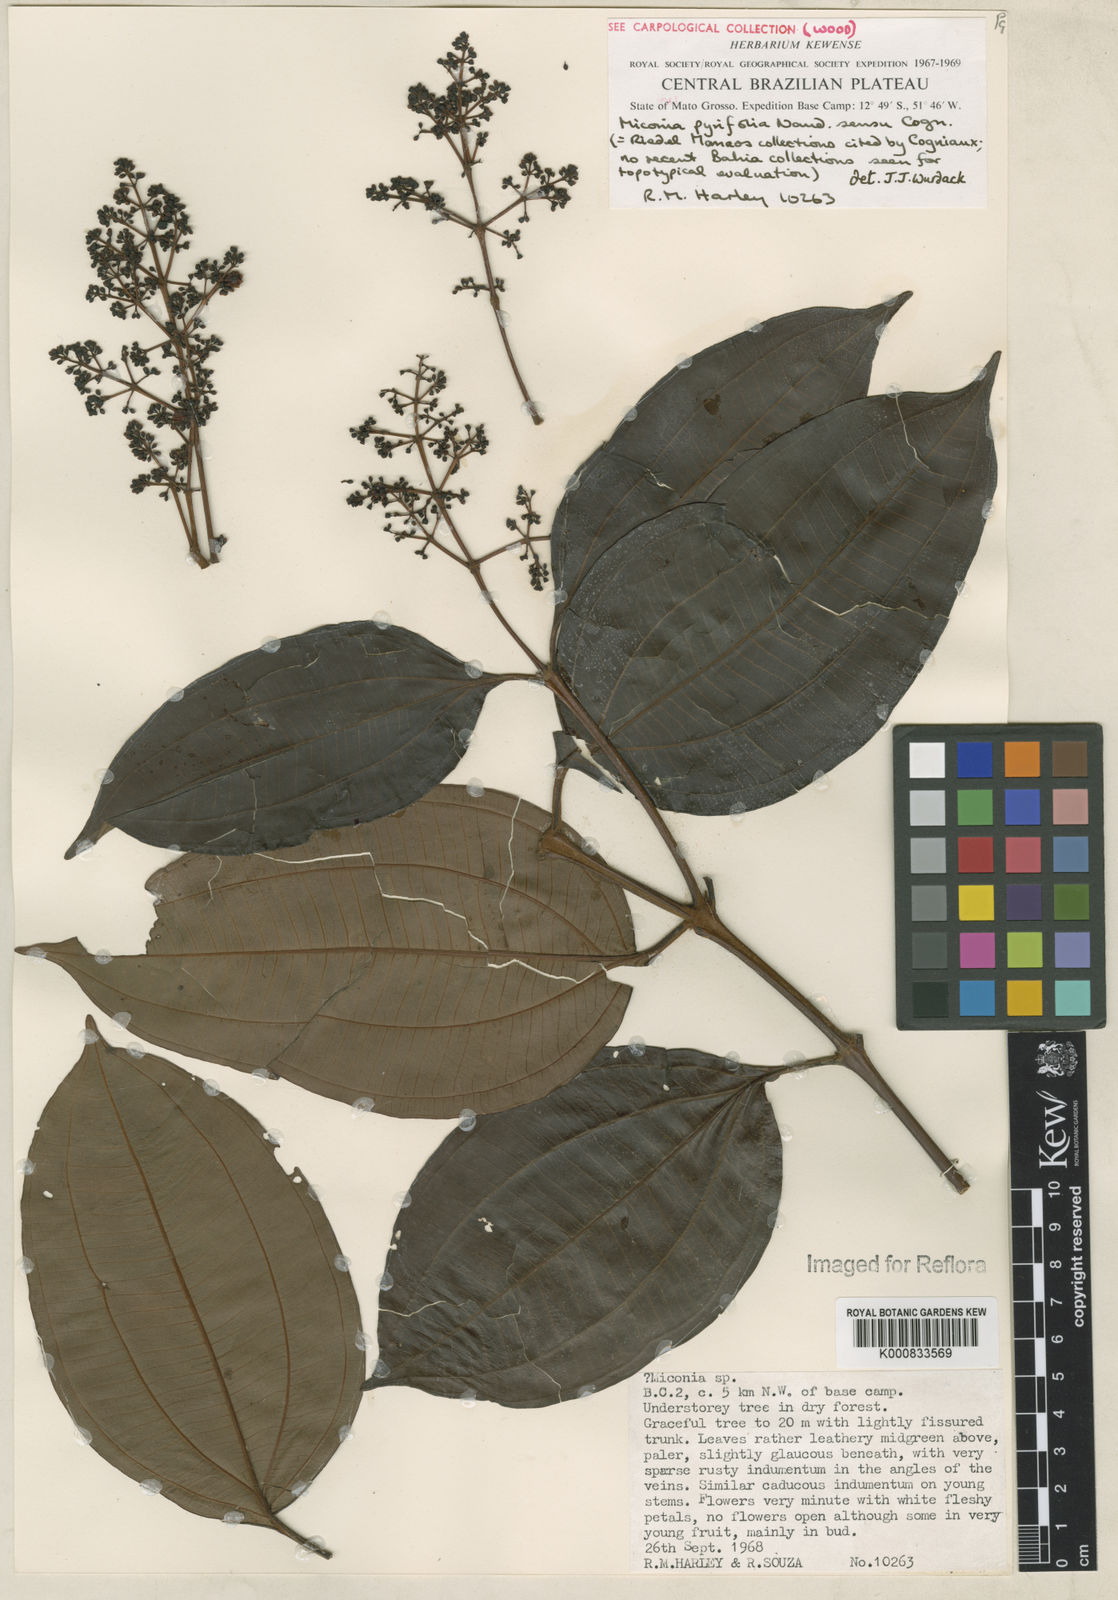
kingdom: Plantae
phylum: Tracheophyta
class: Magnoliopsida
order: Myrtales
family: Melastomataceae
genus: Miconia
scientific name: Miconia pyrifolia
